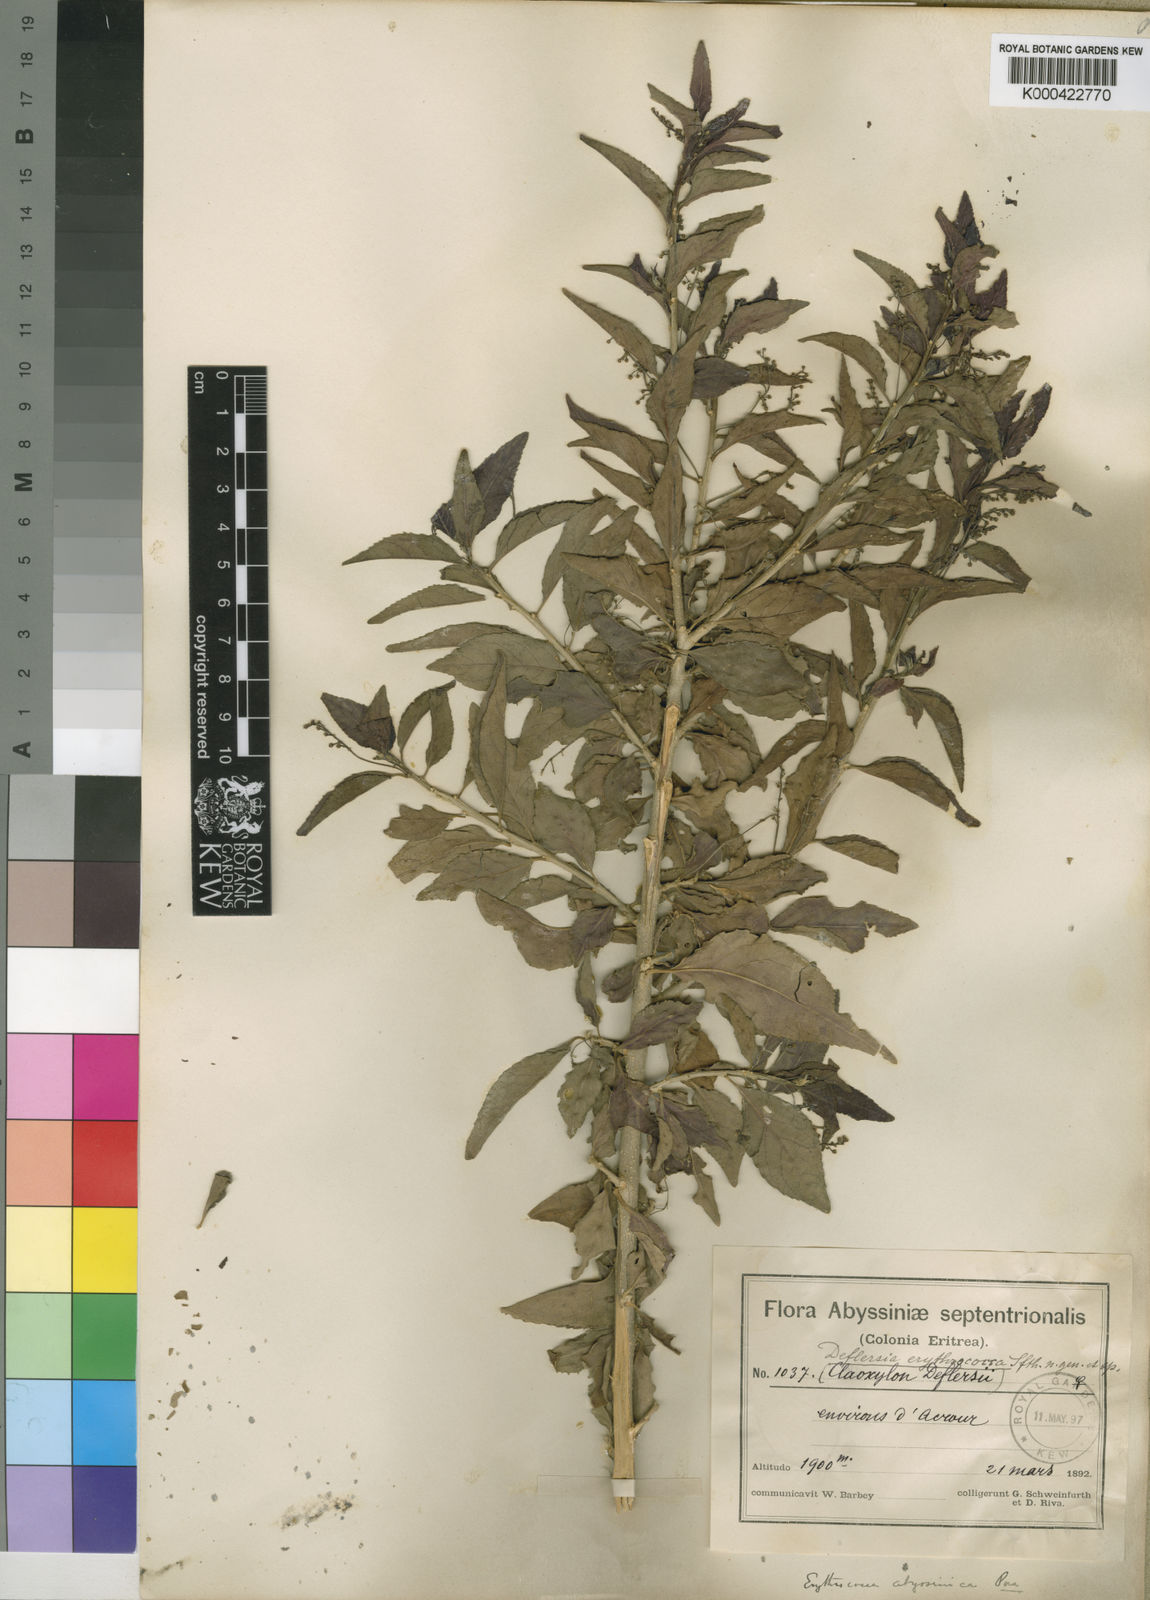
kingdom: Plantae
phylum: Tracheophyta
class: Magnoliopsida
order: Malpighiales
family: Euphorbiaceae
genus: Erythrococca
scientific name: Erythrococca abyssinica
